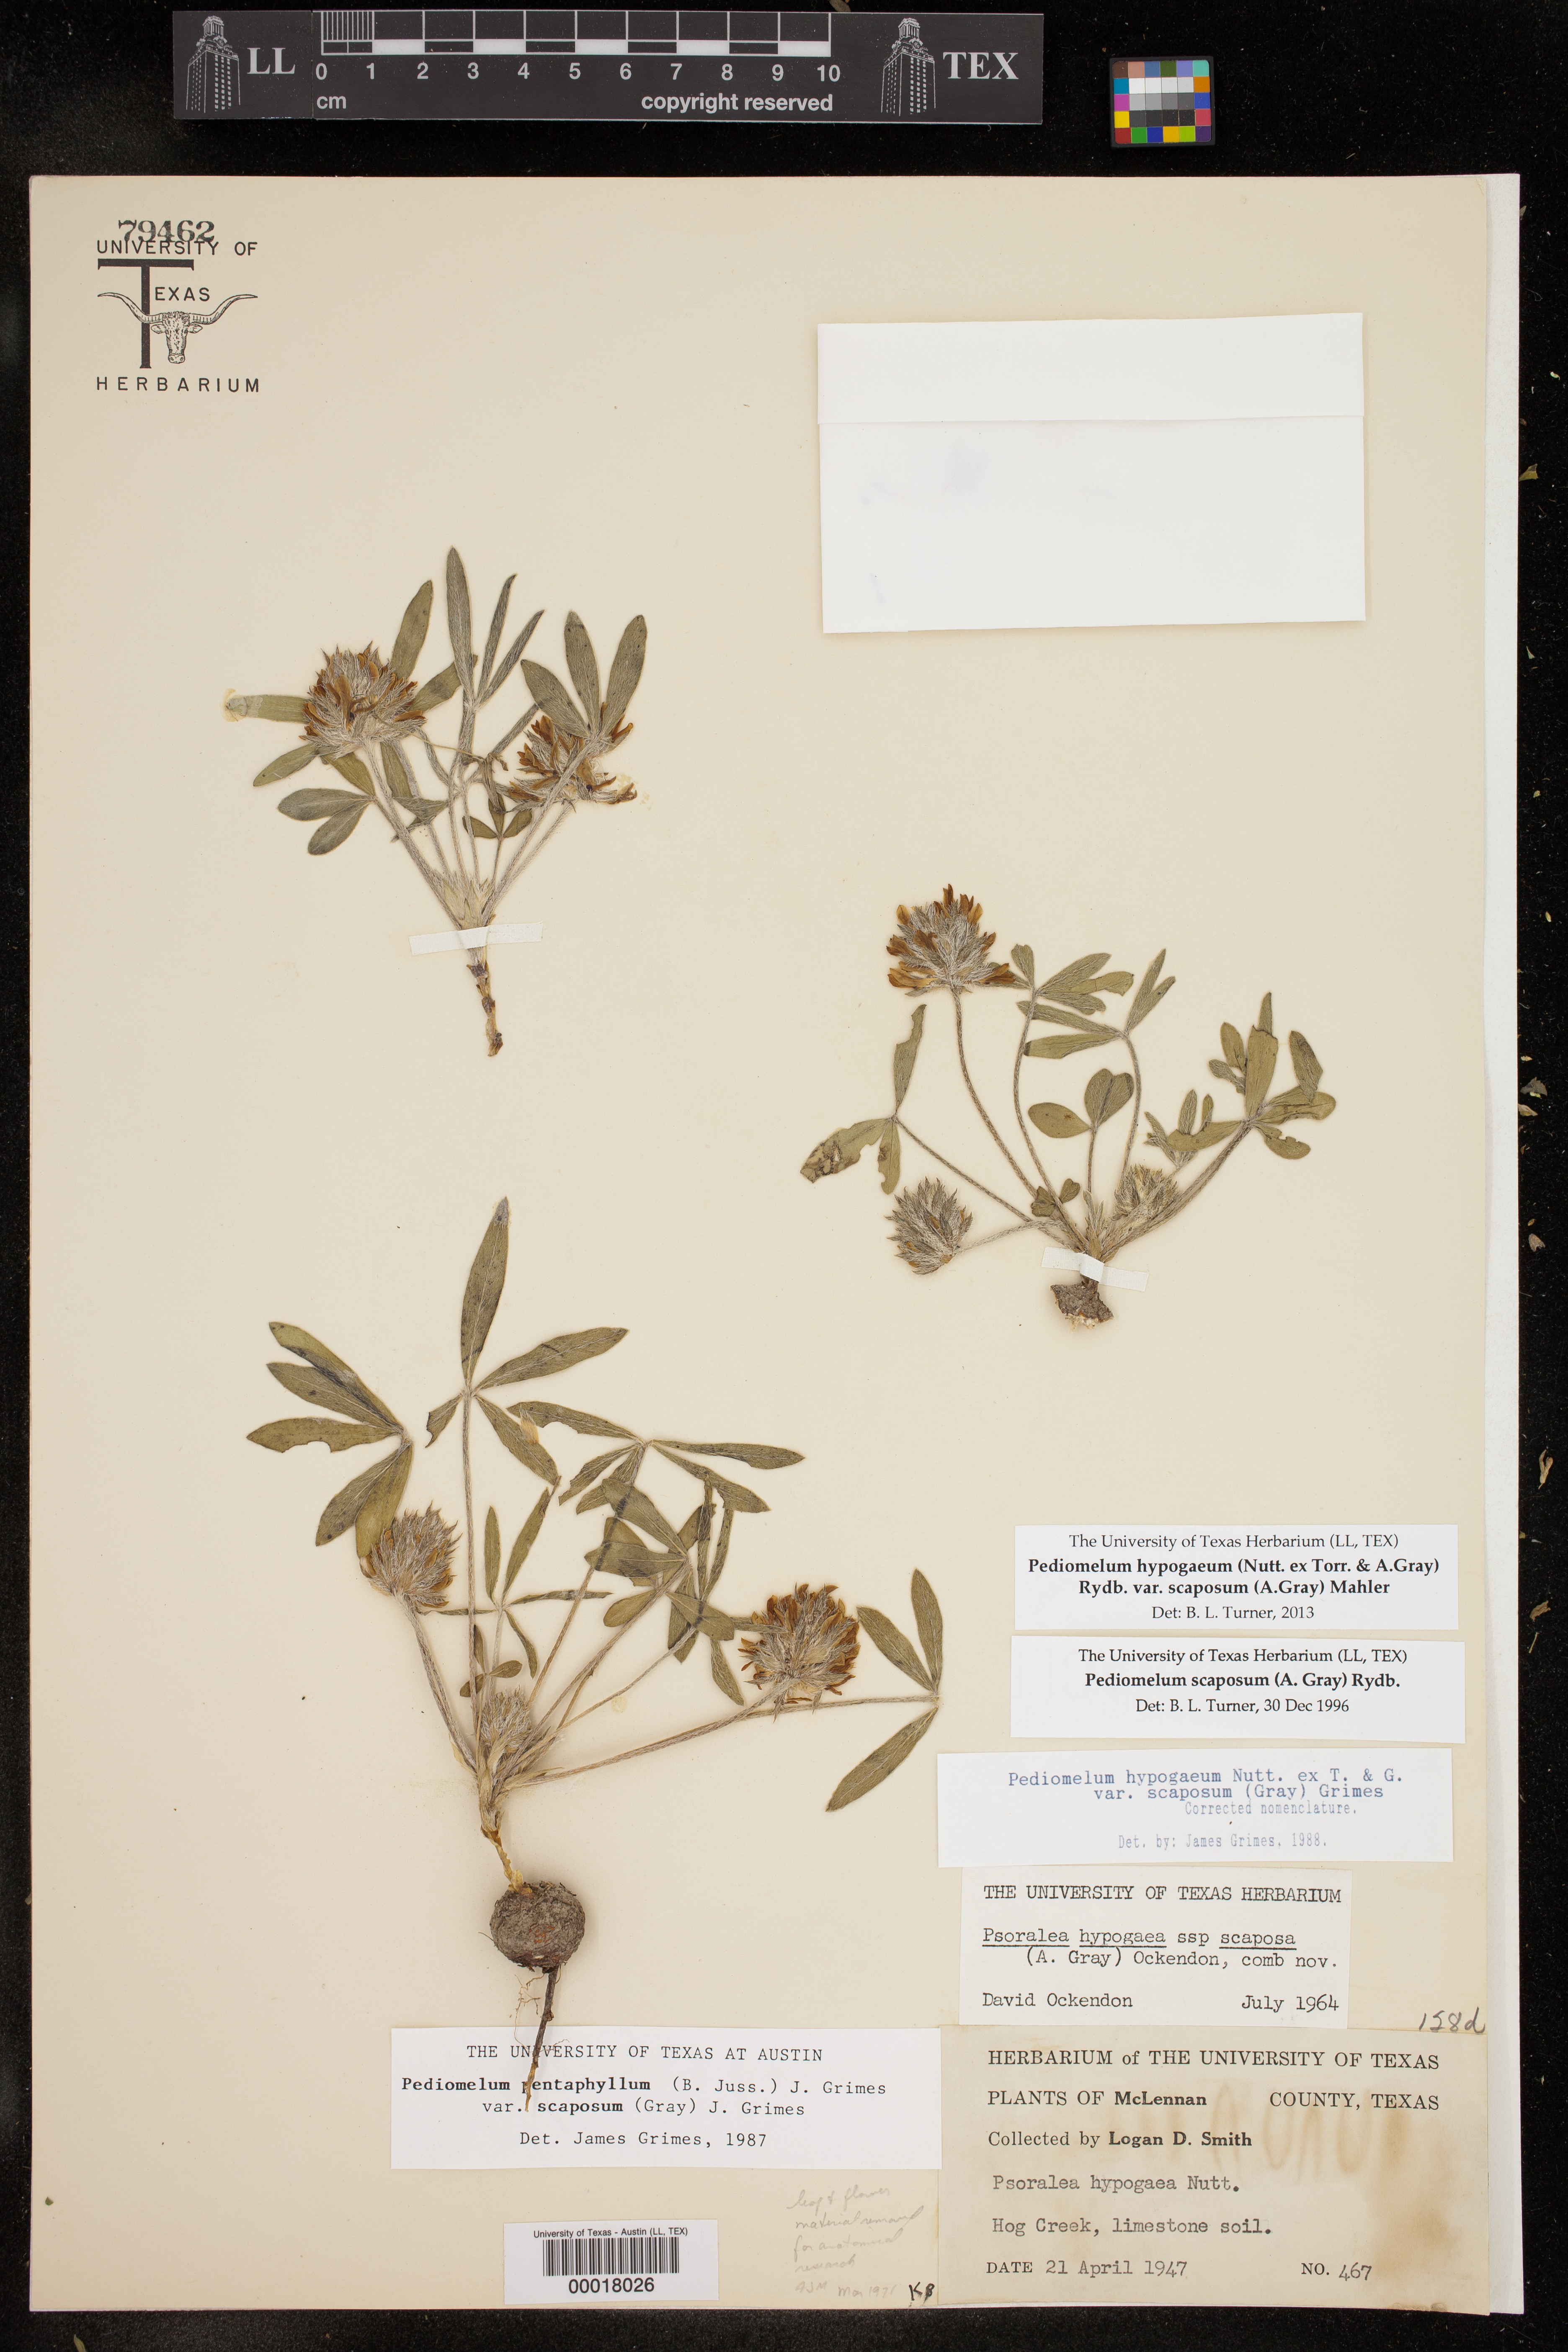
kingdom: Plantae
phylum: Tracheophyta
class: Magnoliopsida
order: Fabales
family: Fabaceae
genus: Pediomelum
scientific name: Pediomelum hypogaeum
